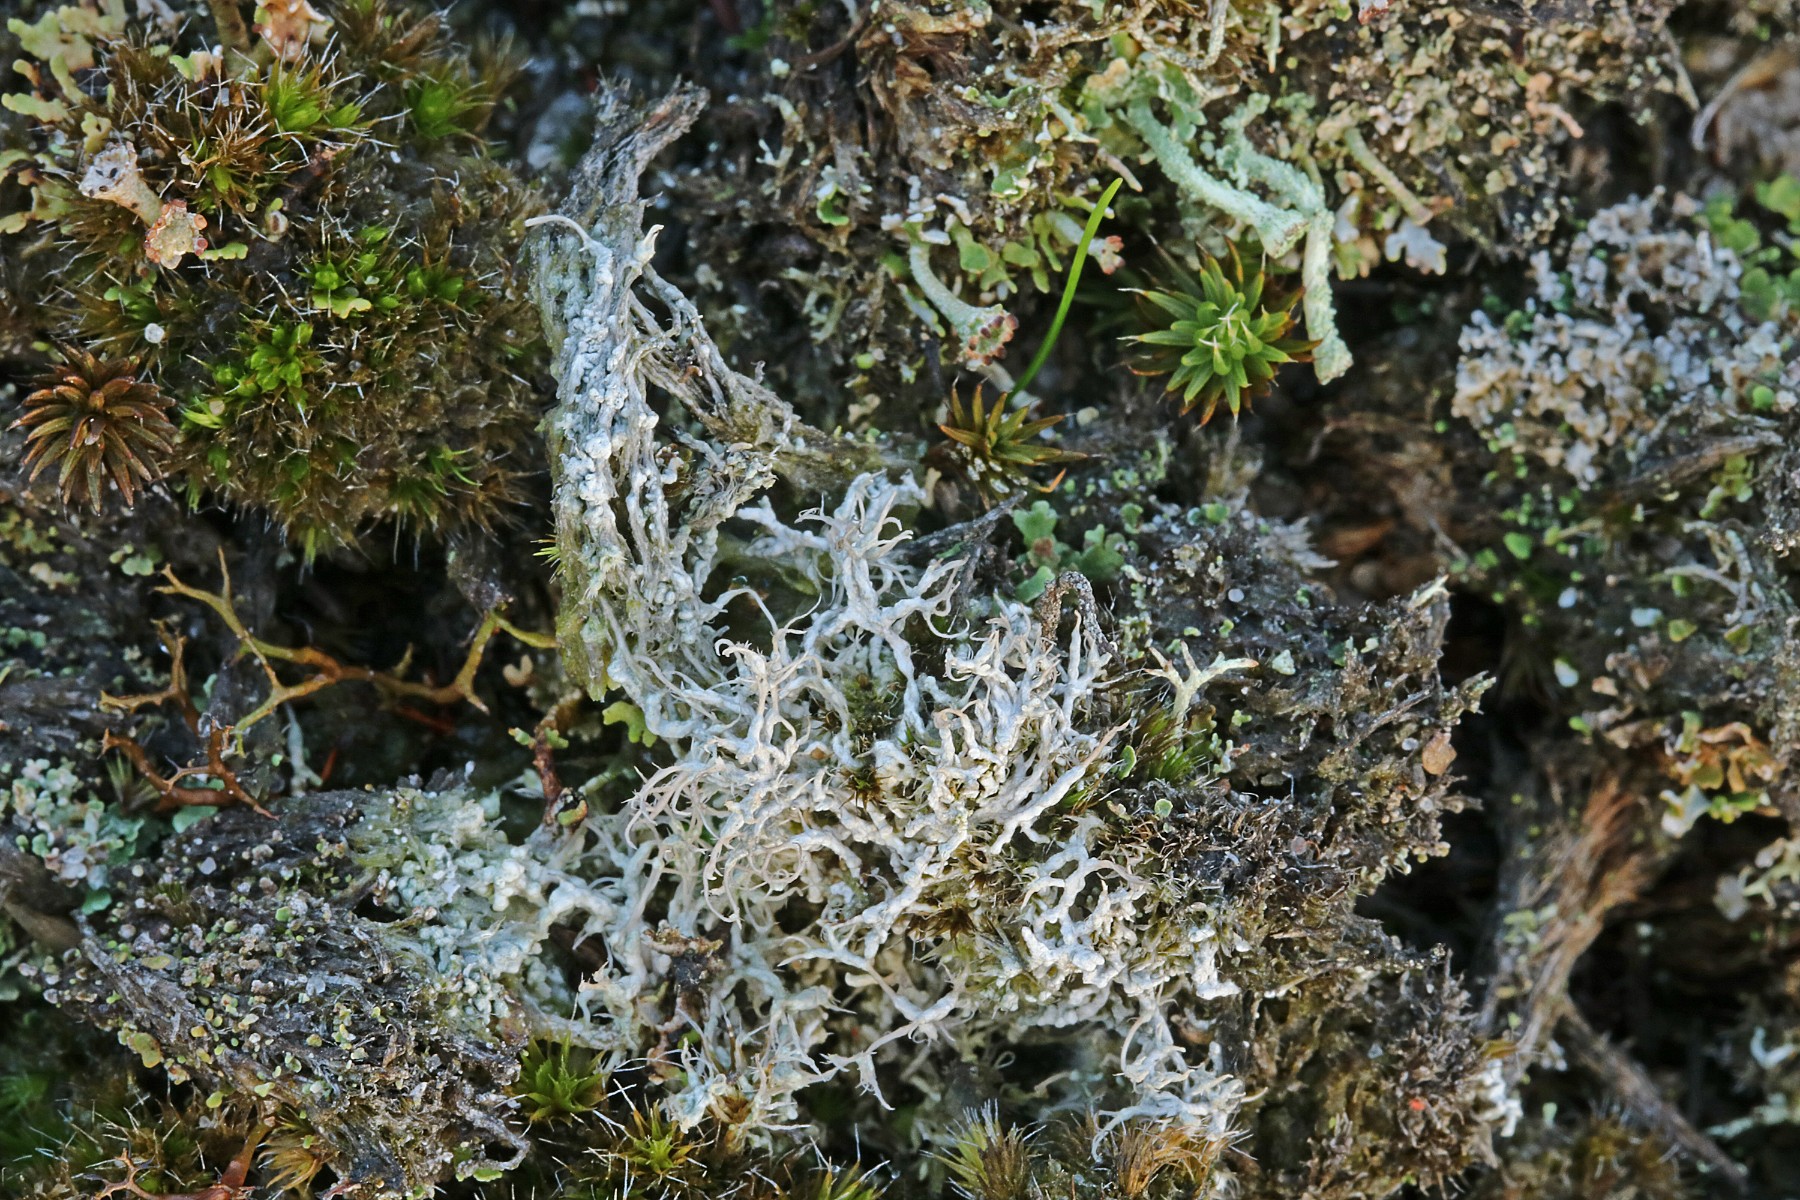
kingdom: Fungi
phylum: Ascomycota
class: Lecanoromycetes
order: Pertusariales
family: Ochrolechiaceae
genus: Ochrolechia
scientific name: Ochrolechia frigida
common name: fjeld-blegskivelav
